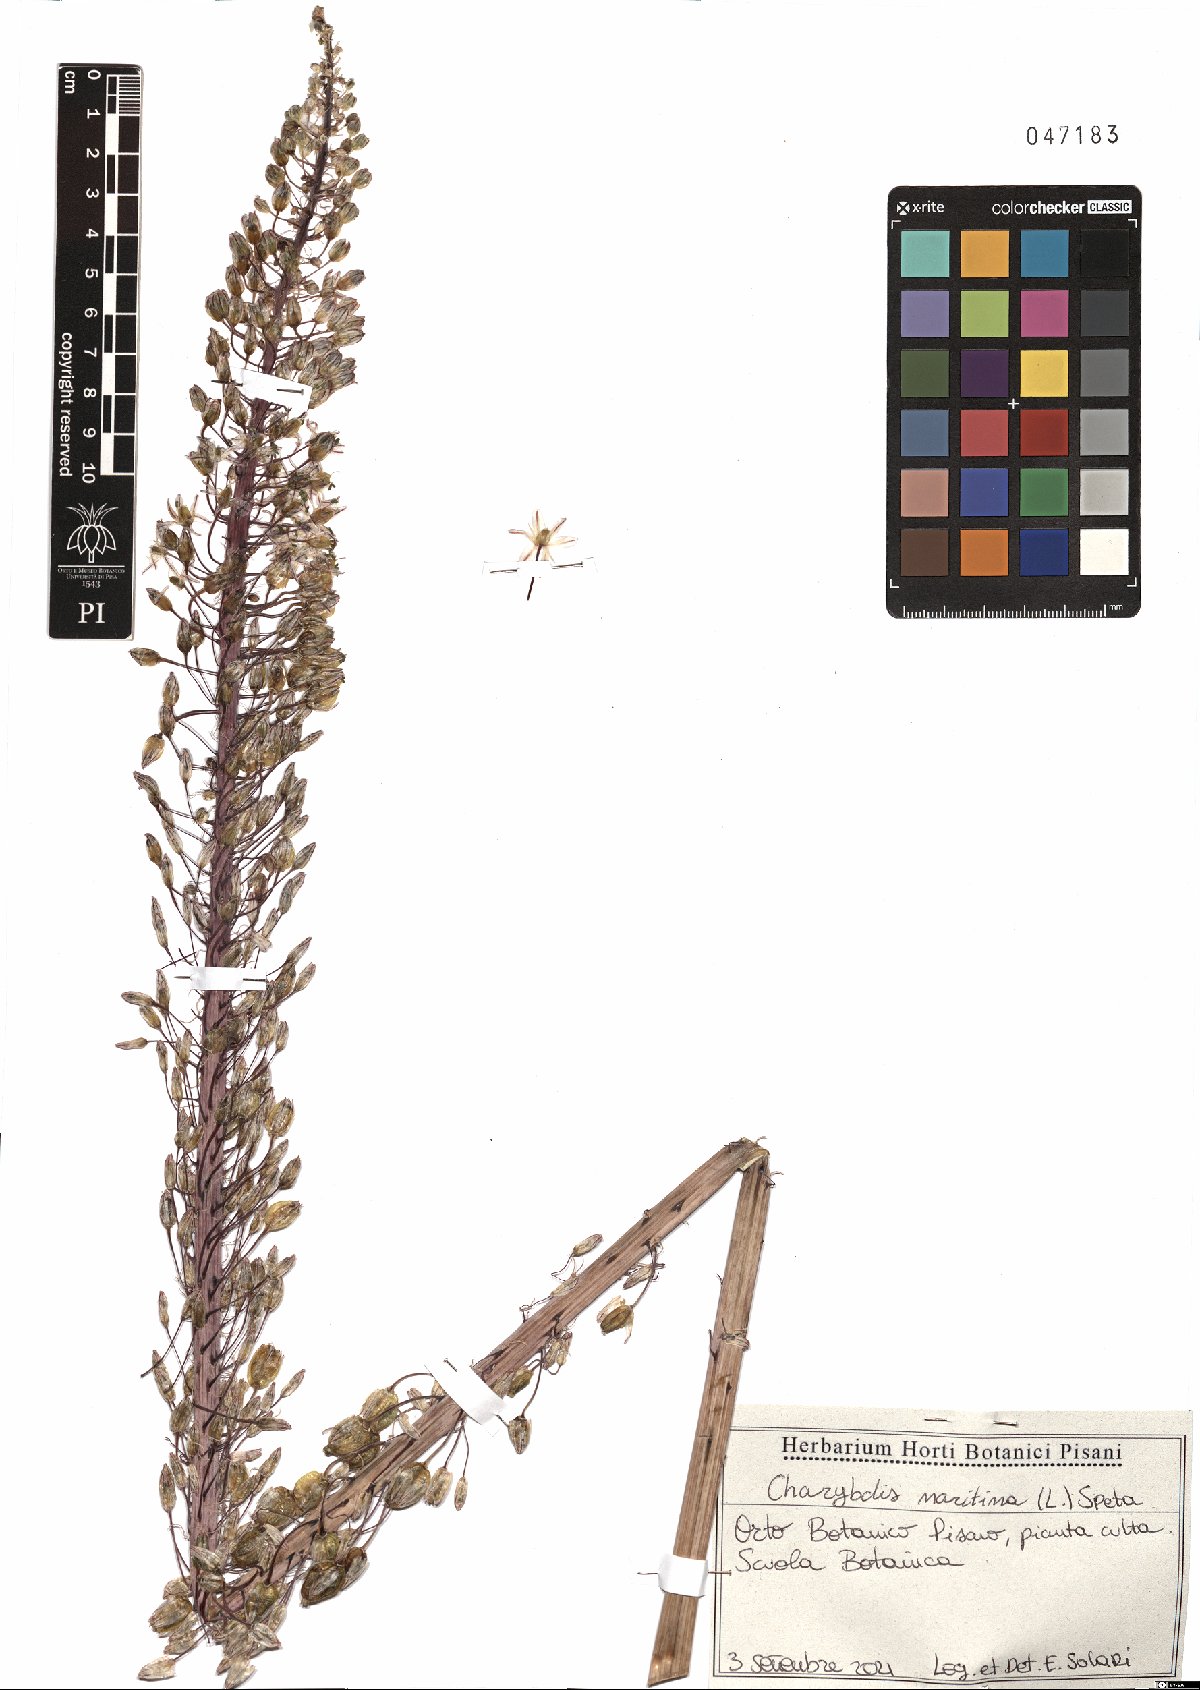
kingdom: Plantae
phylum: Tracheophyta
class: Liliopsida
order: Asparagales
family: Asparagaceae
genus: Drimia
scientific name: Drimia maritima
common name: Maritime squill
